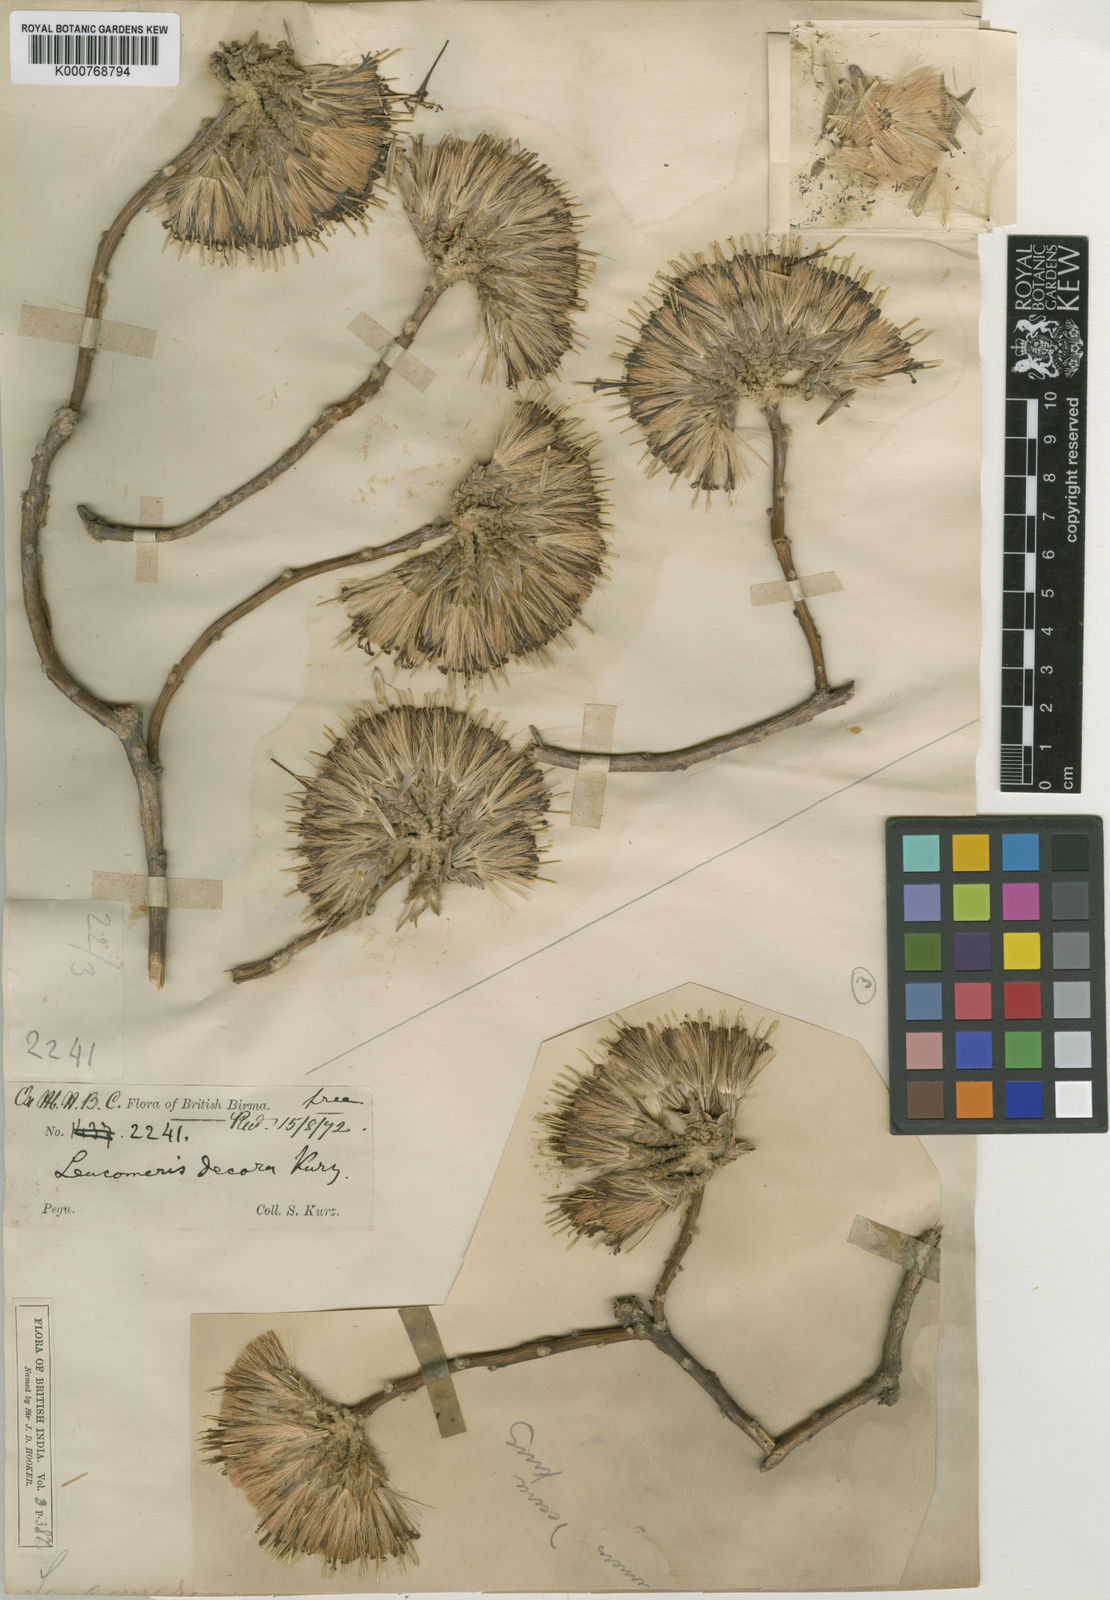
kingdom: Plantae
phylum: Tracheophyta
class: Magnoliopsida
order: Asterales
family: Asteraceae
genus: Leucomeris
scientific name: Leucomeris decora
